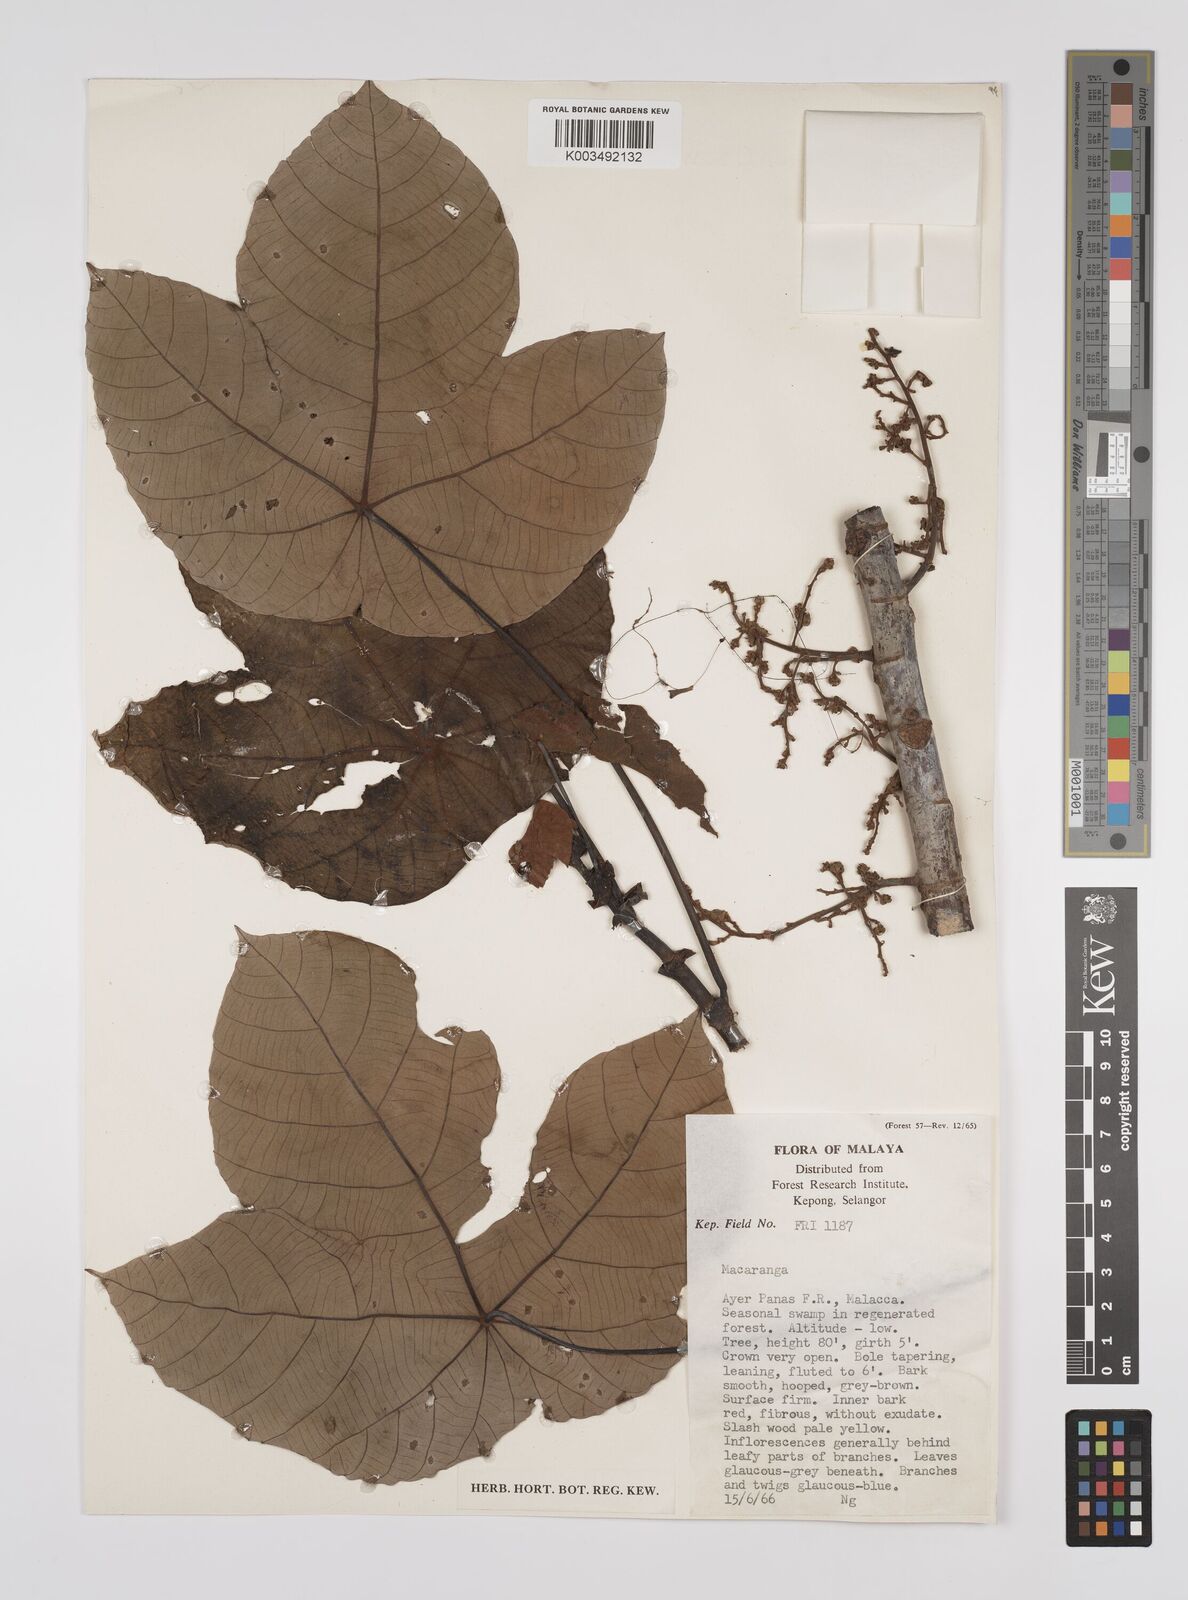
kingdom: Plantae
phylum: Tracheophyta
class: Magnoliopsida
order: Malpighiales
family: Euphorbiaceae
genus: Macaranga
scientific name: Macaranga pruinosa
